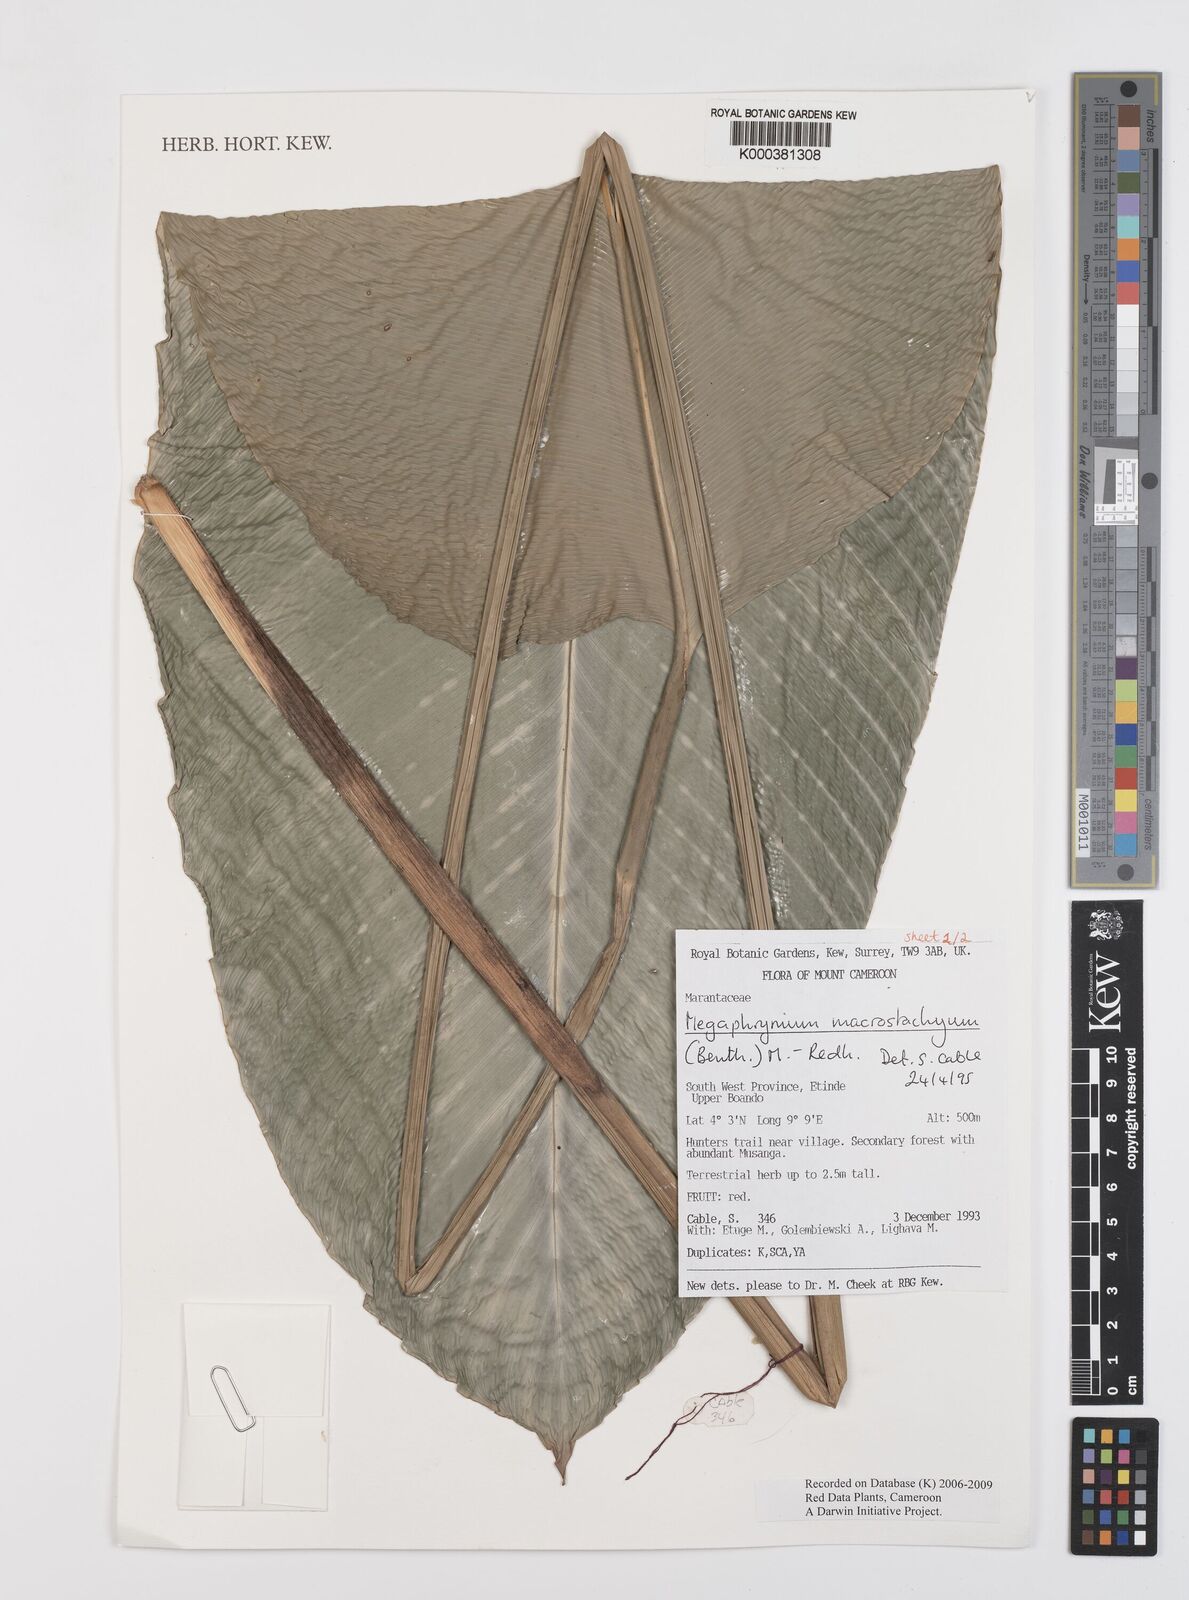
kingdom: Plantae
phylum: Tracheophyta
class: Liliopsida
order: Zingiberales
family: Marantaceae
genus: Megaphrynium
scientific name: Megaphrynium macrostachyum
